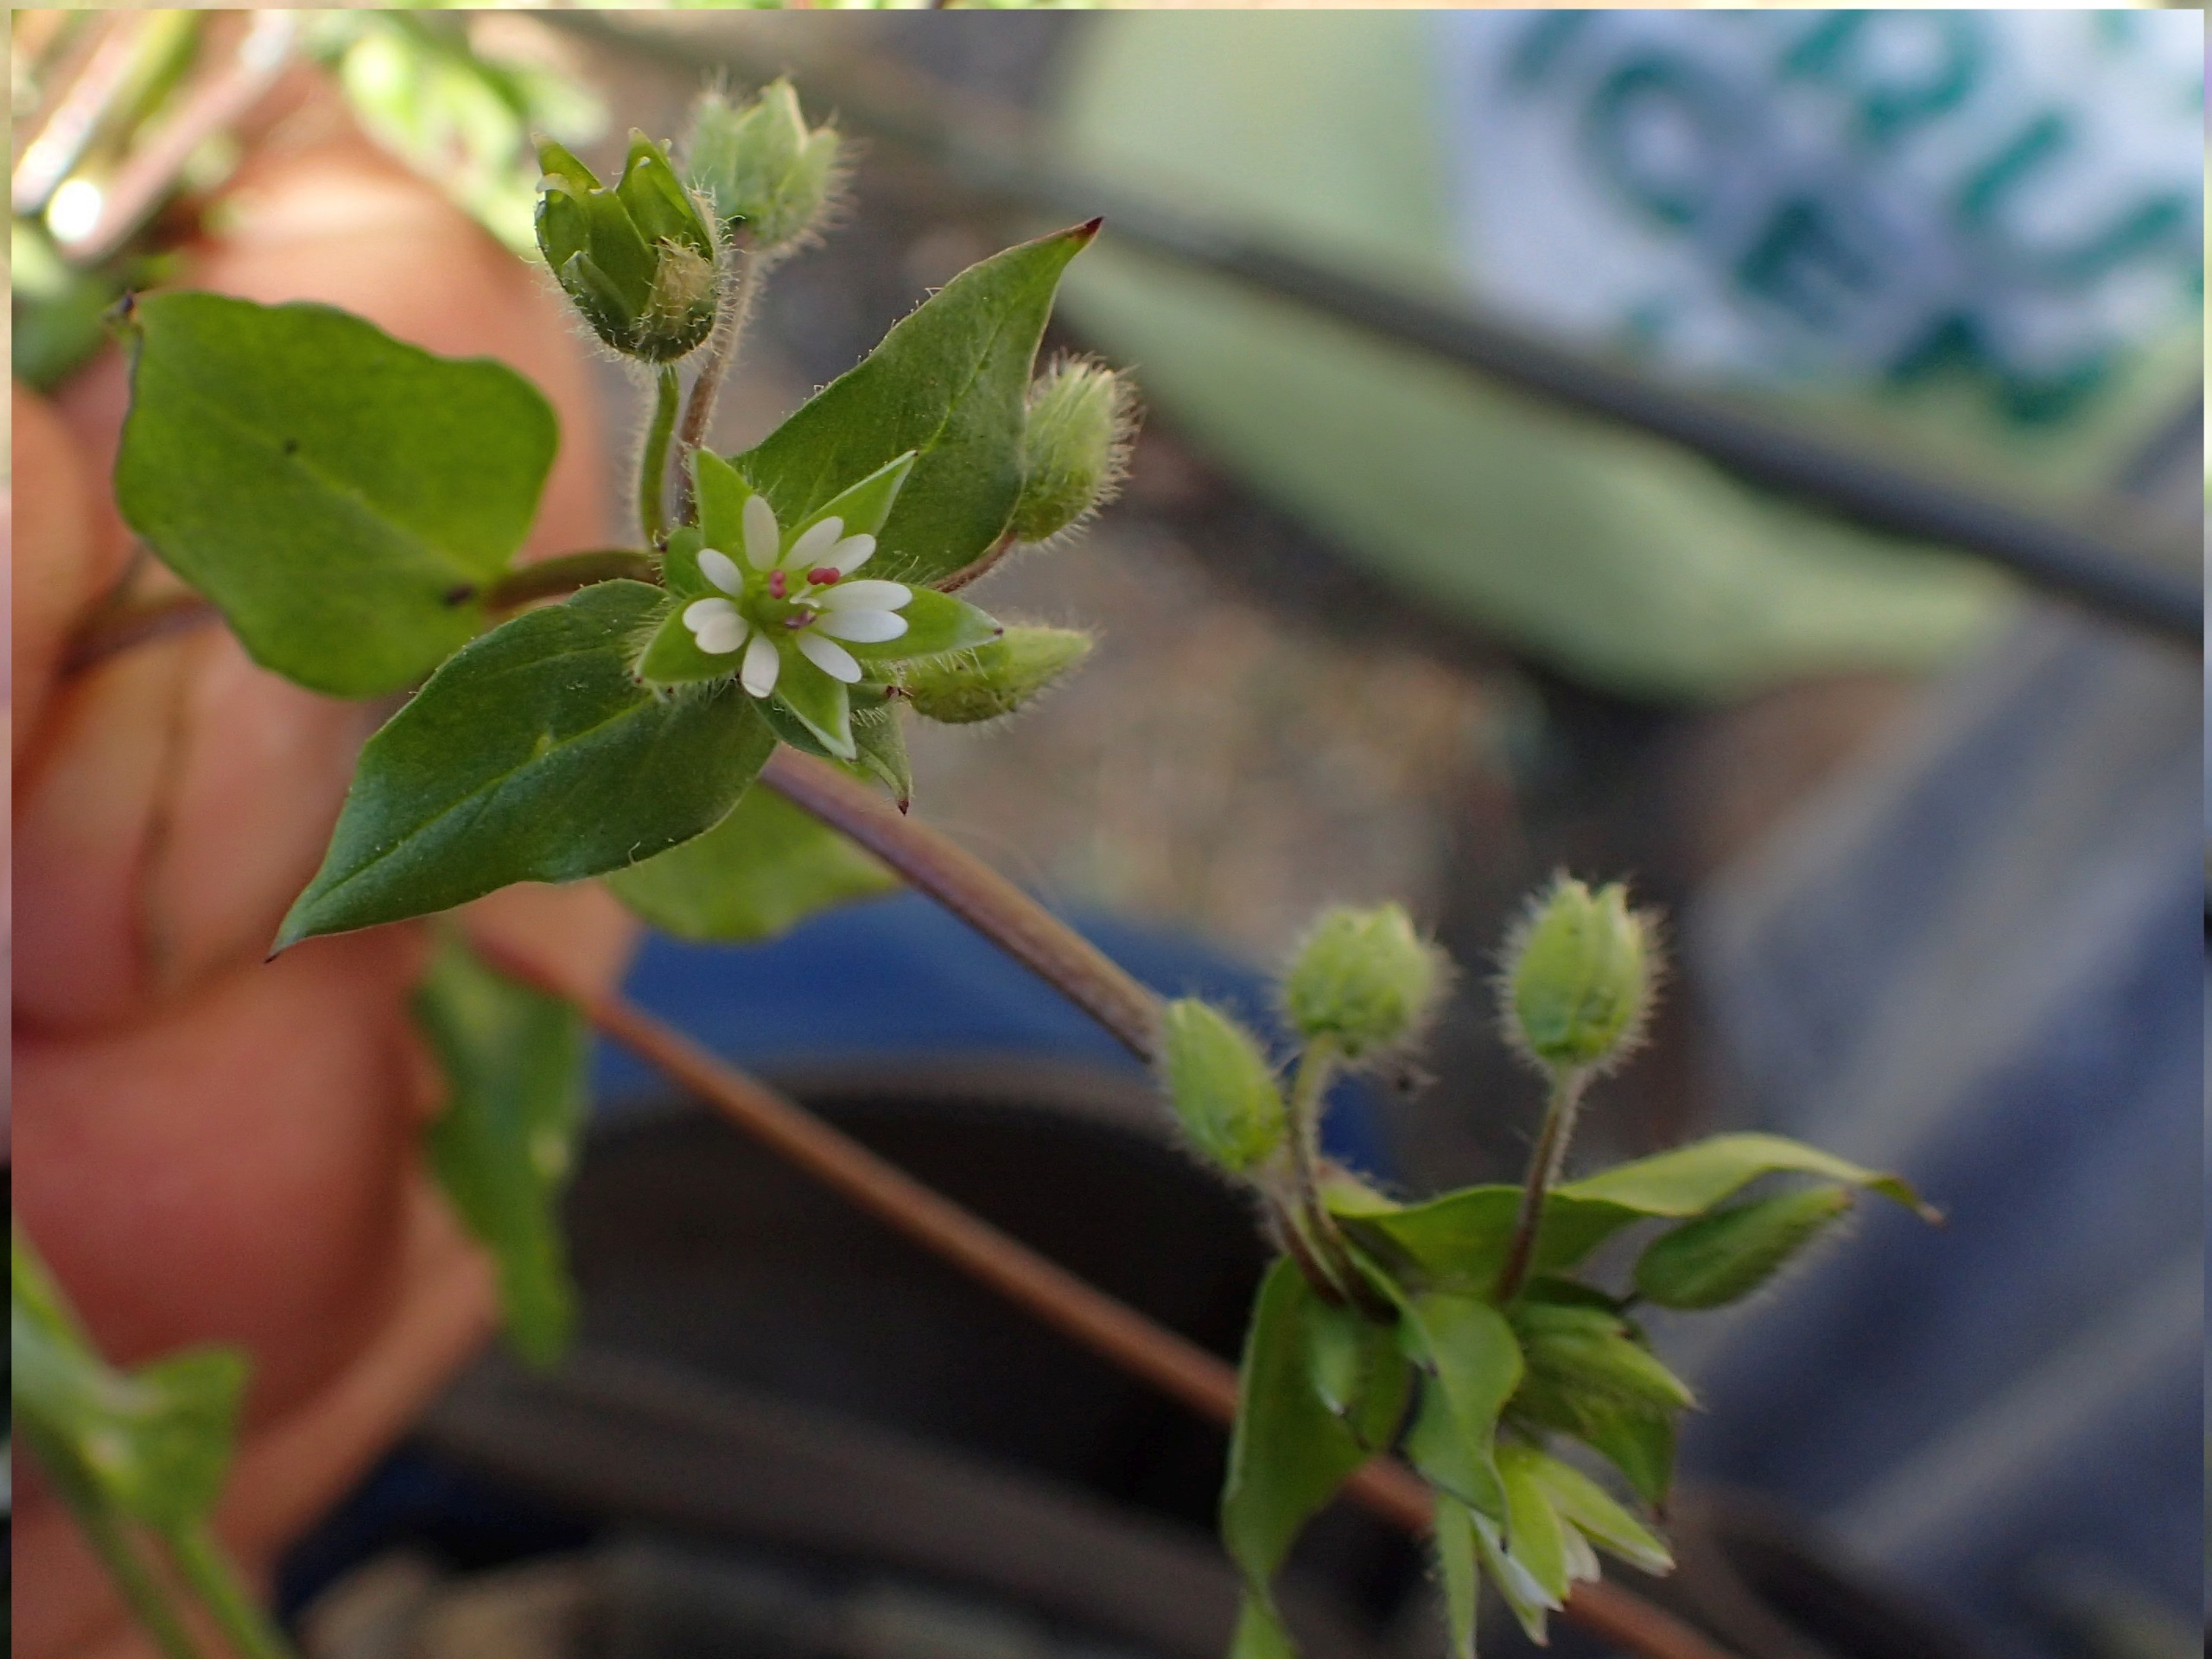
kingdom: Plantae
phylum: Tracheophyta
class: Magnoliopsida
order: Caryophyllales
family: Caryophyllaceae
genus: Stellaria
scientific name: Stellaria media
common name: Almindelig fuglegræs
